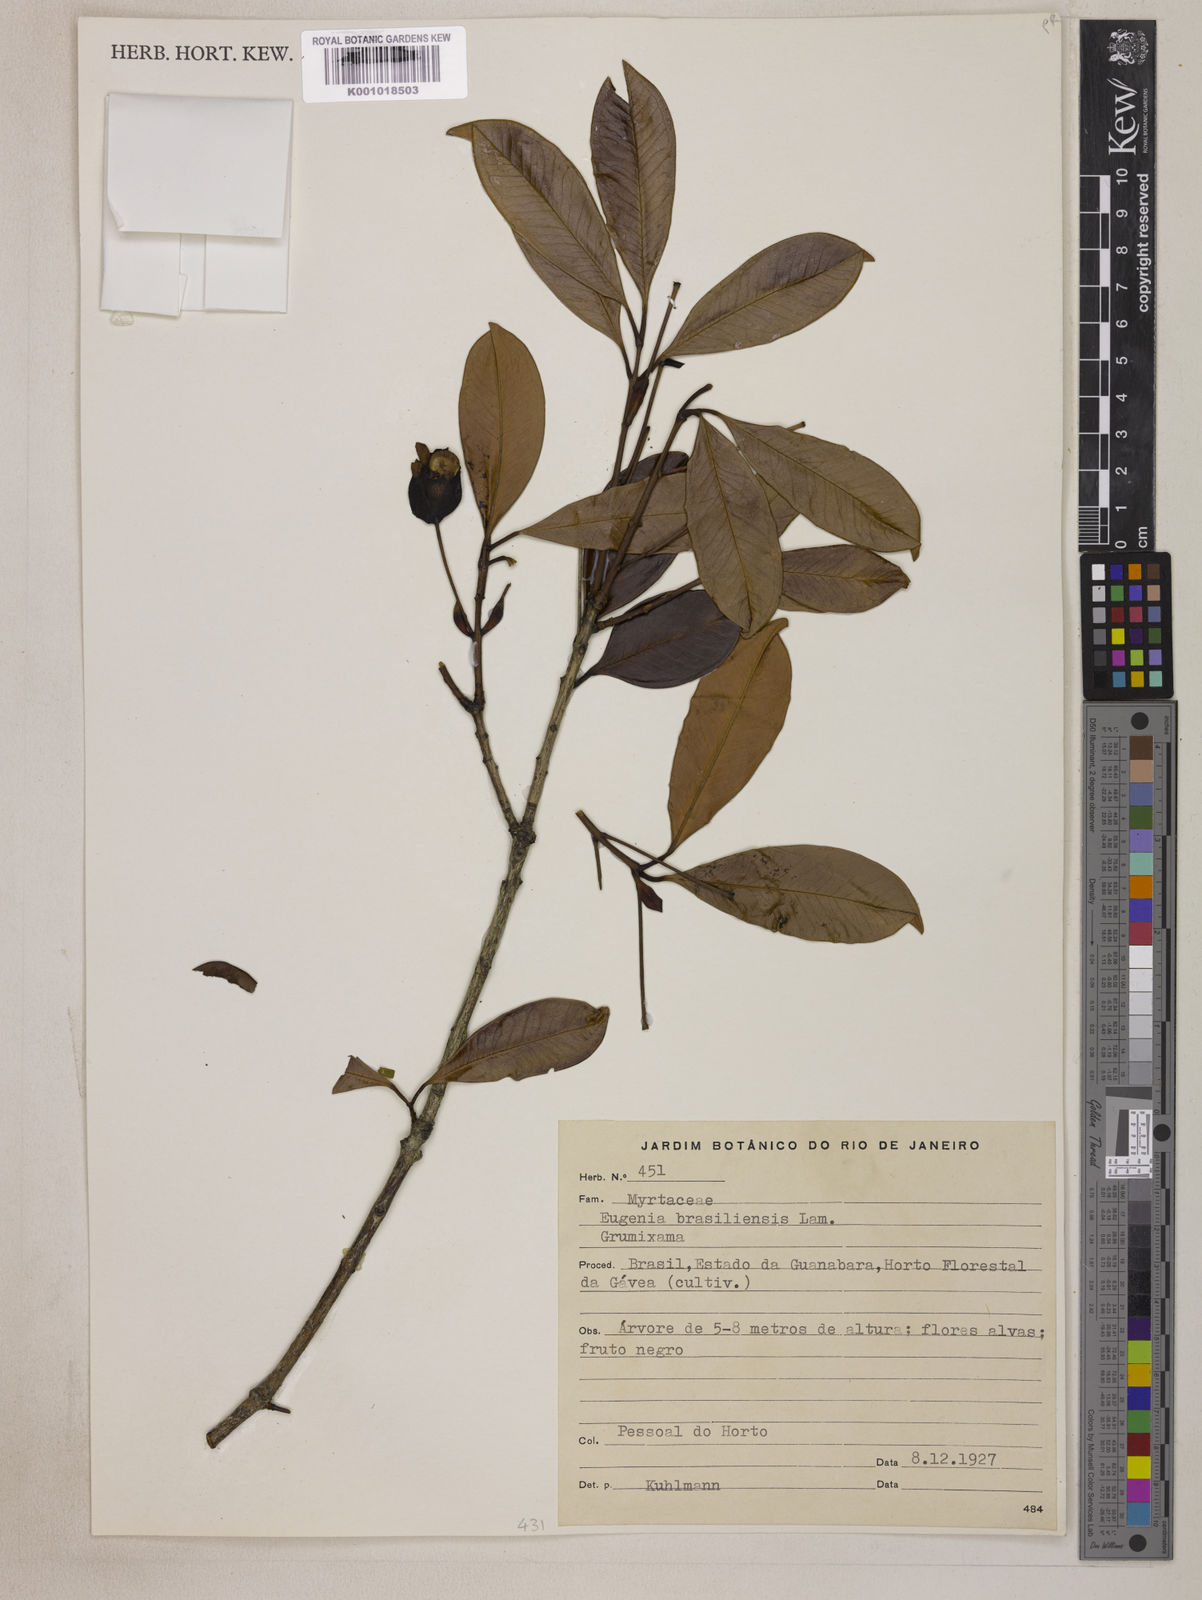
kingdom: Plantae
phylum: Tracheophyta
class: Magnoliopsida
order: Myrtales
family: Myrtaceae
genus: Eugenia
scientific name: Eugenia brasiliensis
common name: Grumichama
